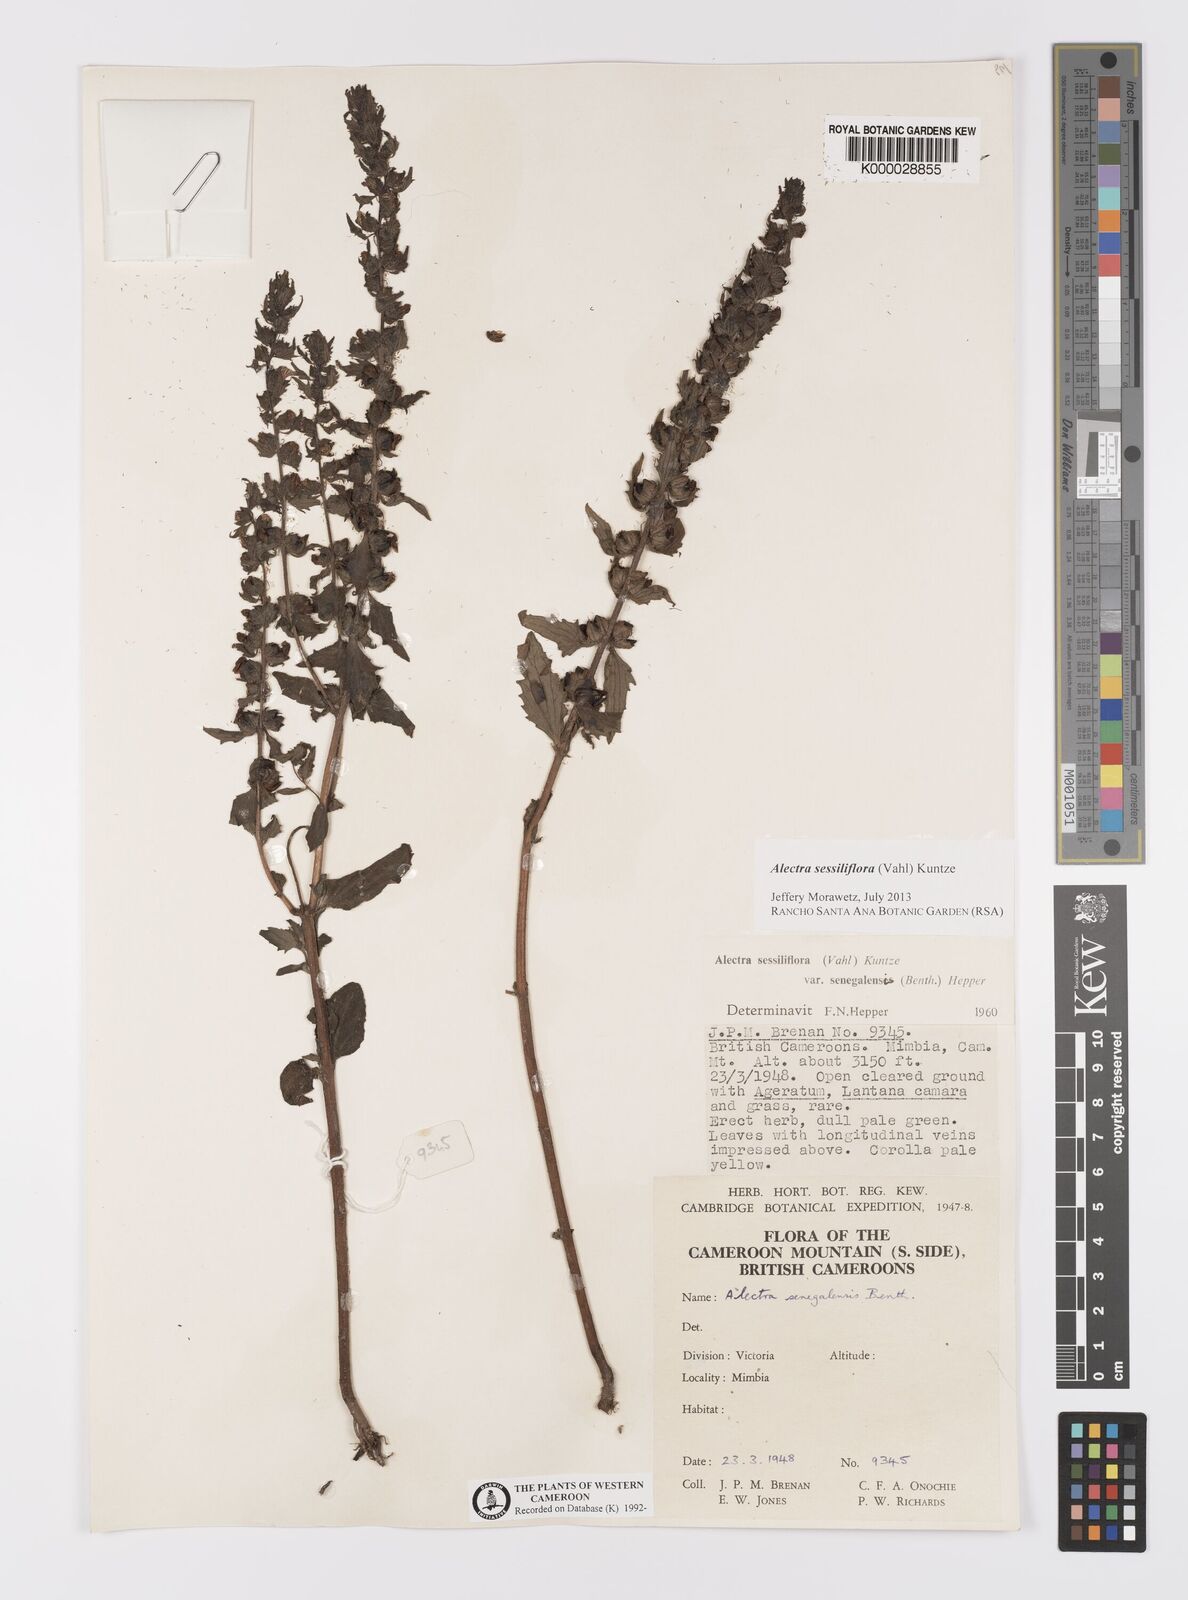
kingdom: Plantae
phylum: Tracheophyta
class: Magnoliopsida
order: Lamiales
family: Orobanchaceae
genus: Alectra
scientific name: Alectra sessiliflora
